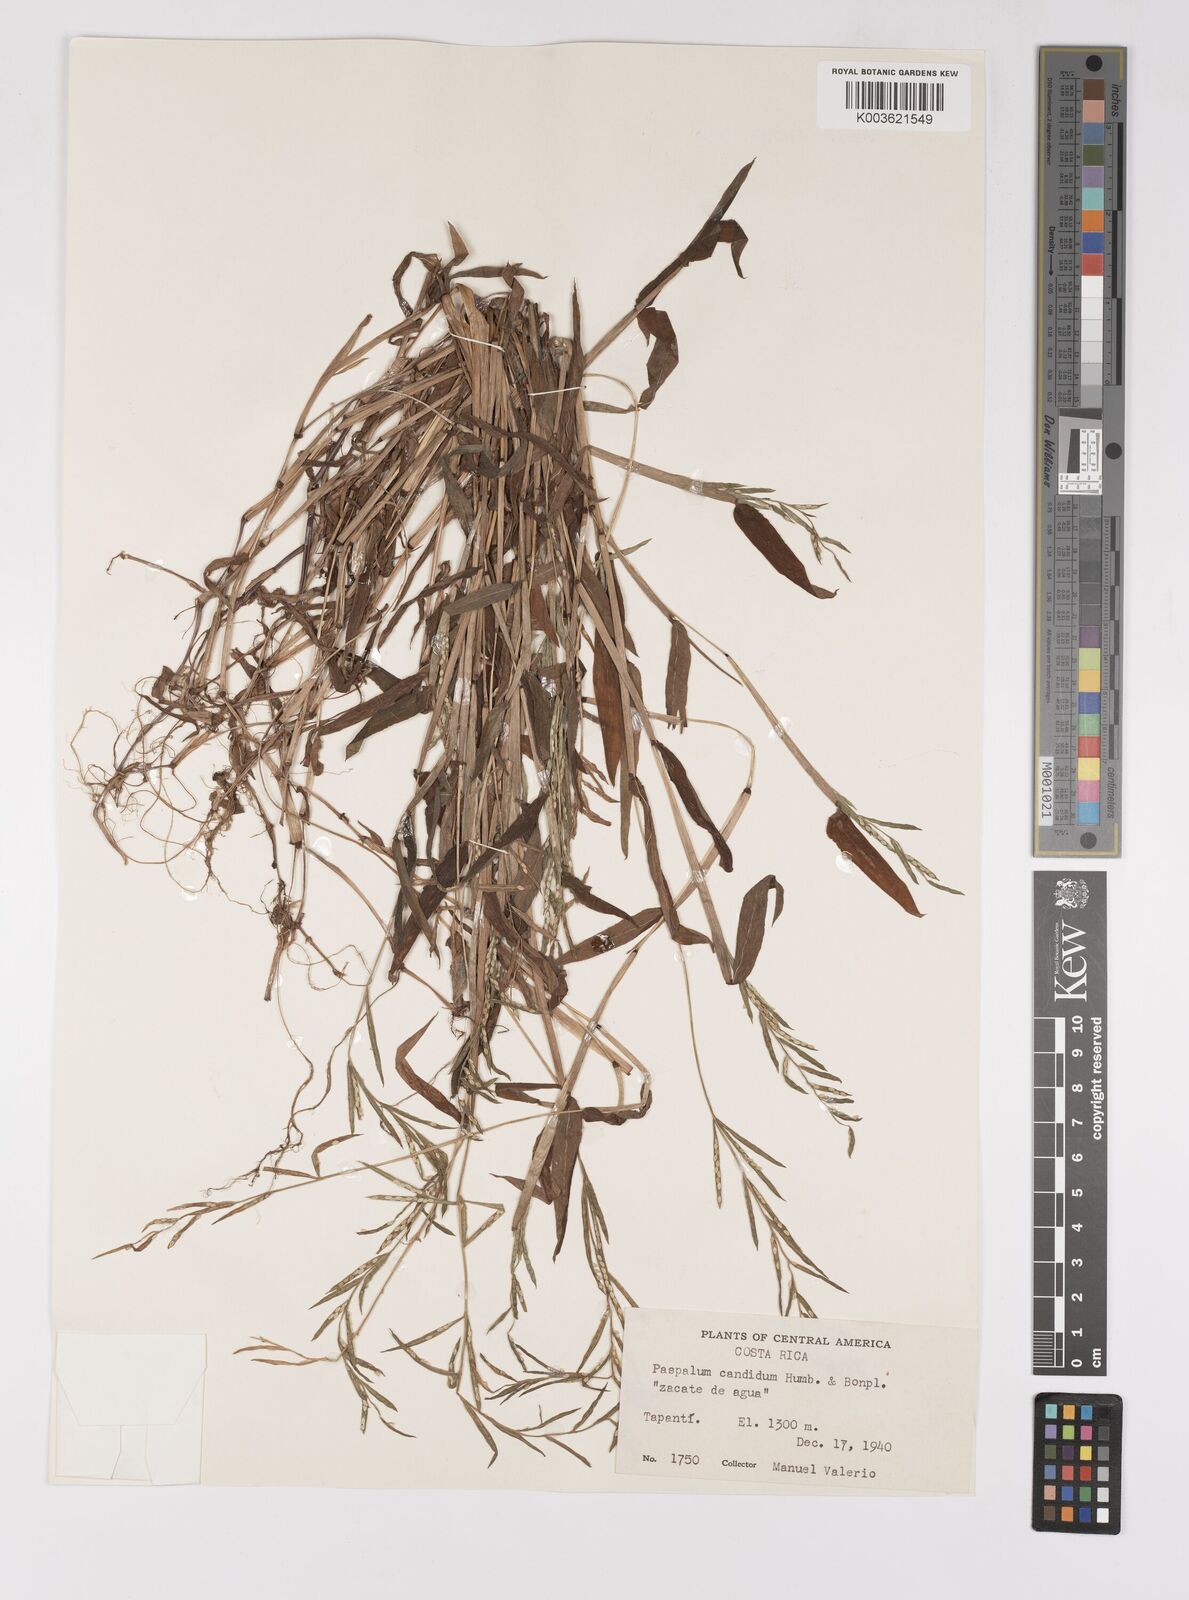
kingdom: Plantae
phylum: Tracheophyta
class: Liliopsida
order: Poales
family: Poaceae
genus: Paspalum
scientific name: Paspalum candidum
